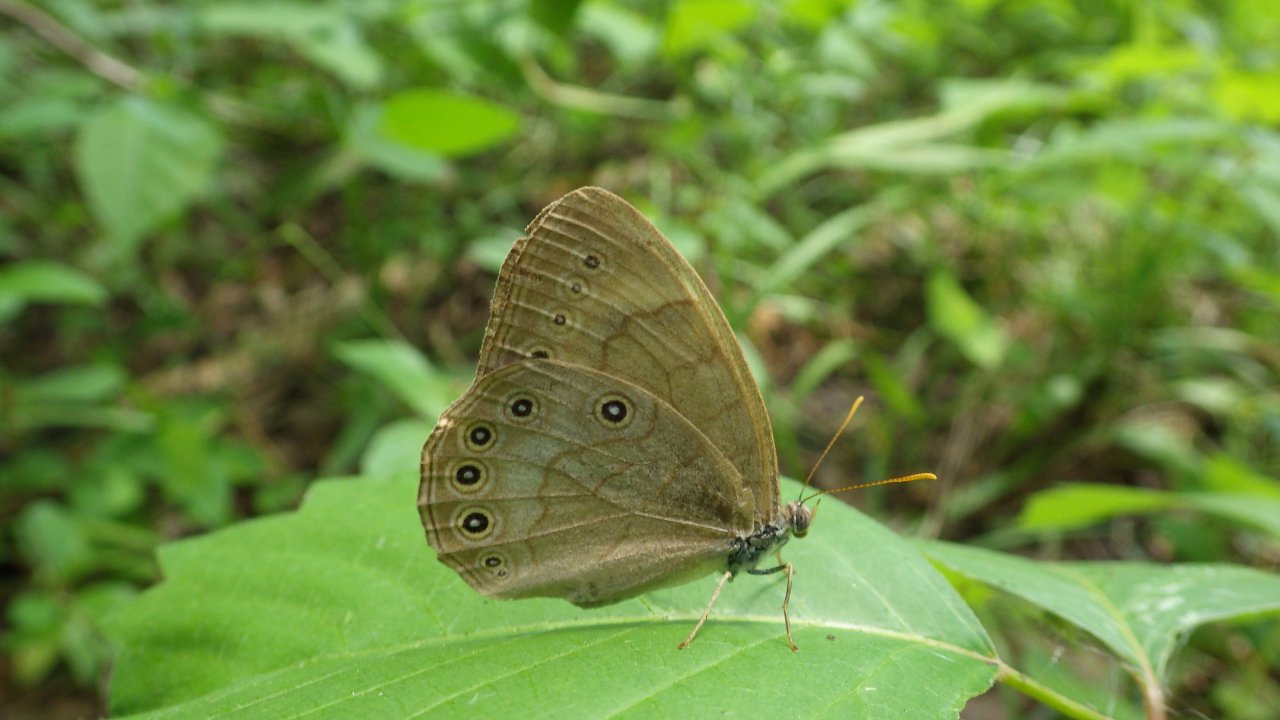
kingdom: Animalia
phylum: Arthropoda
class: Insecta
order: Lepidoptera
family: Nymphalidae
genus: Lethe
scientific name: Lethe eurydice
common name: Appalachian Eyed Brown
